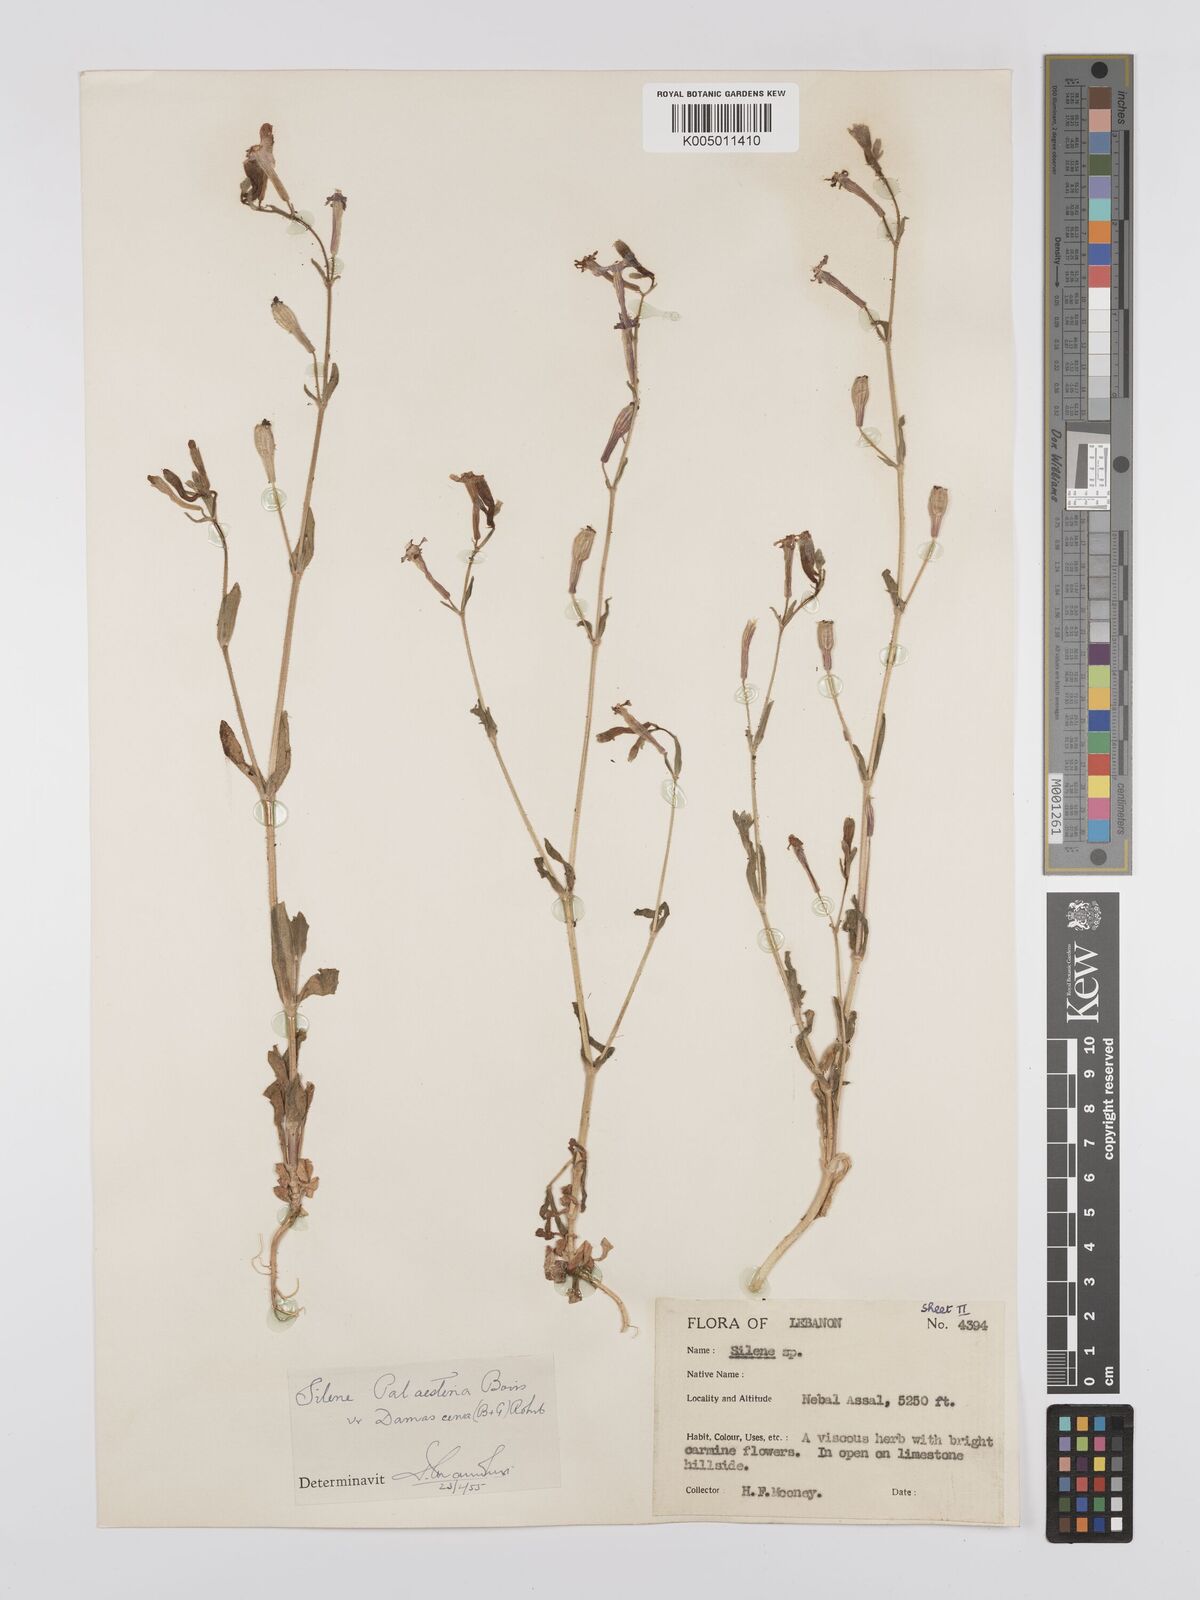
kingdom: Plantae
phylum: Tracheophyta
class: Magnoliopsida
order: Caryophyllales
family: Caryophyllaceae
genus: Silene
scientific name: Silene damascena
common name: Damascus catchfly
